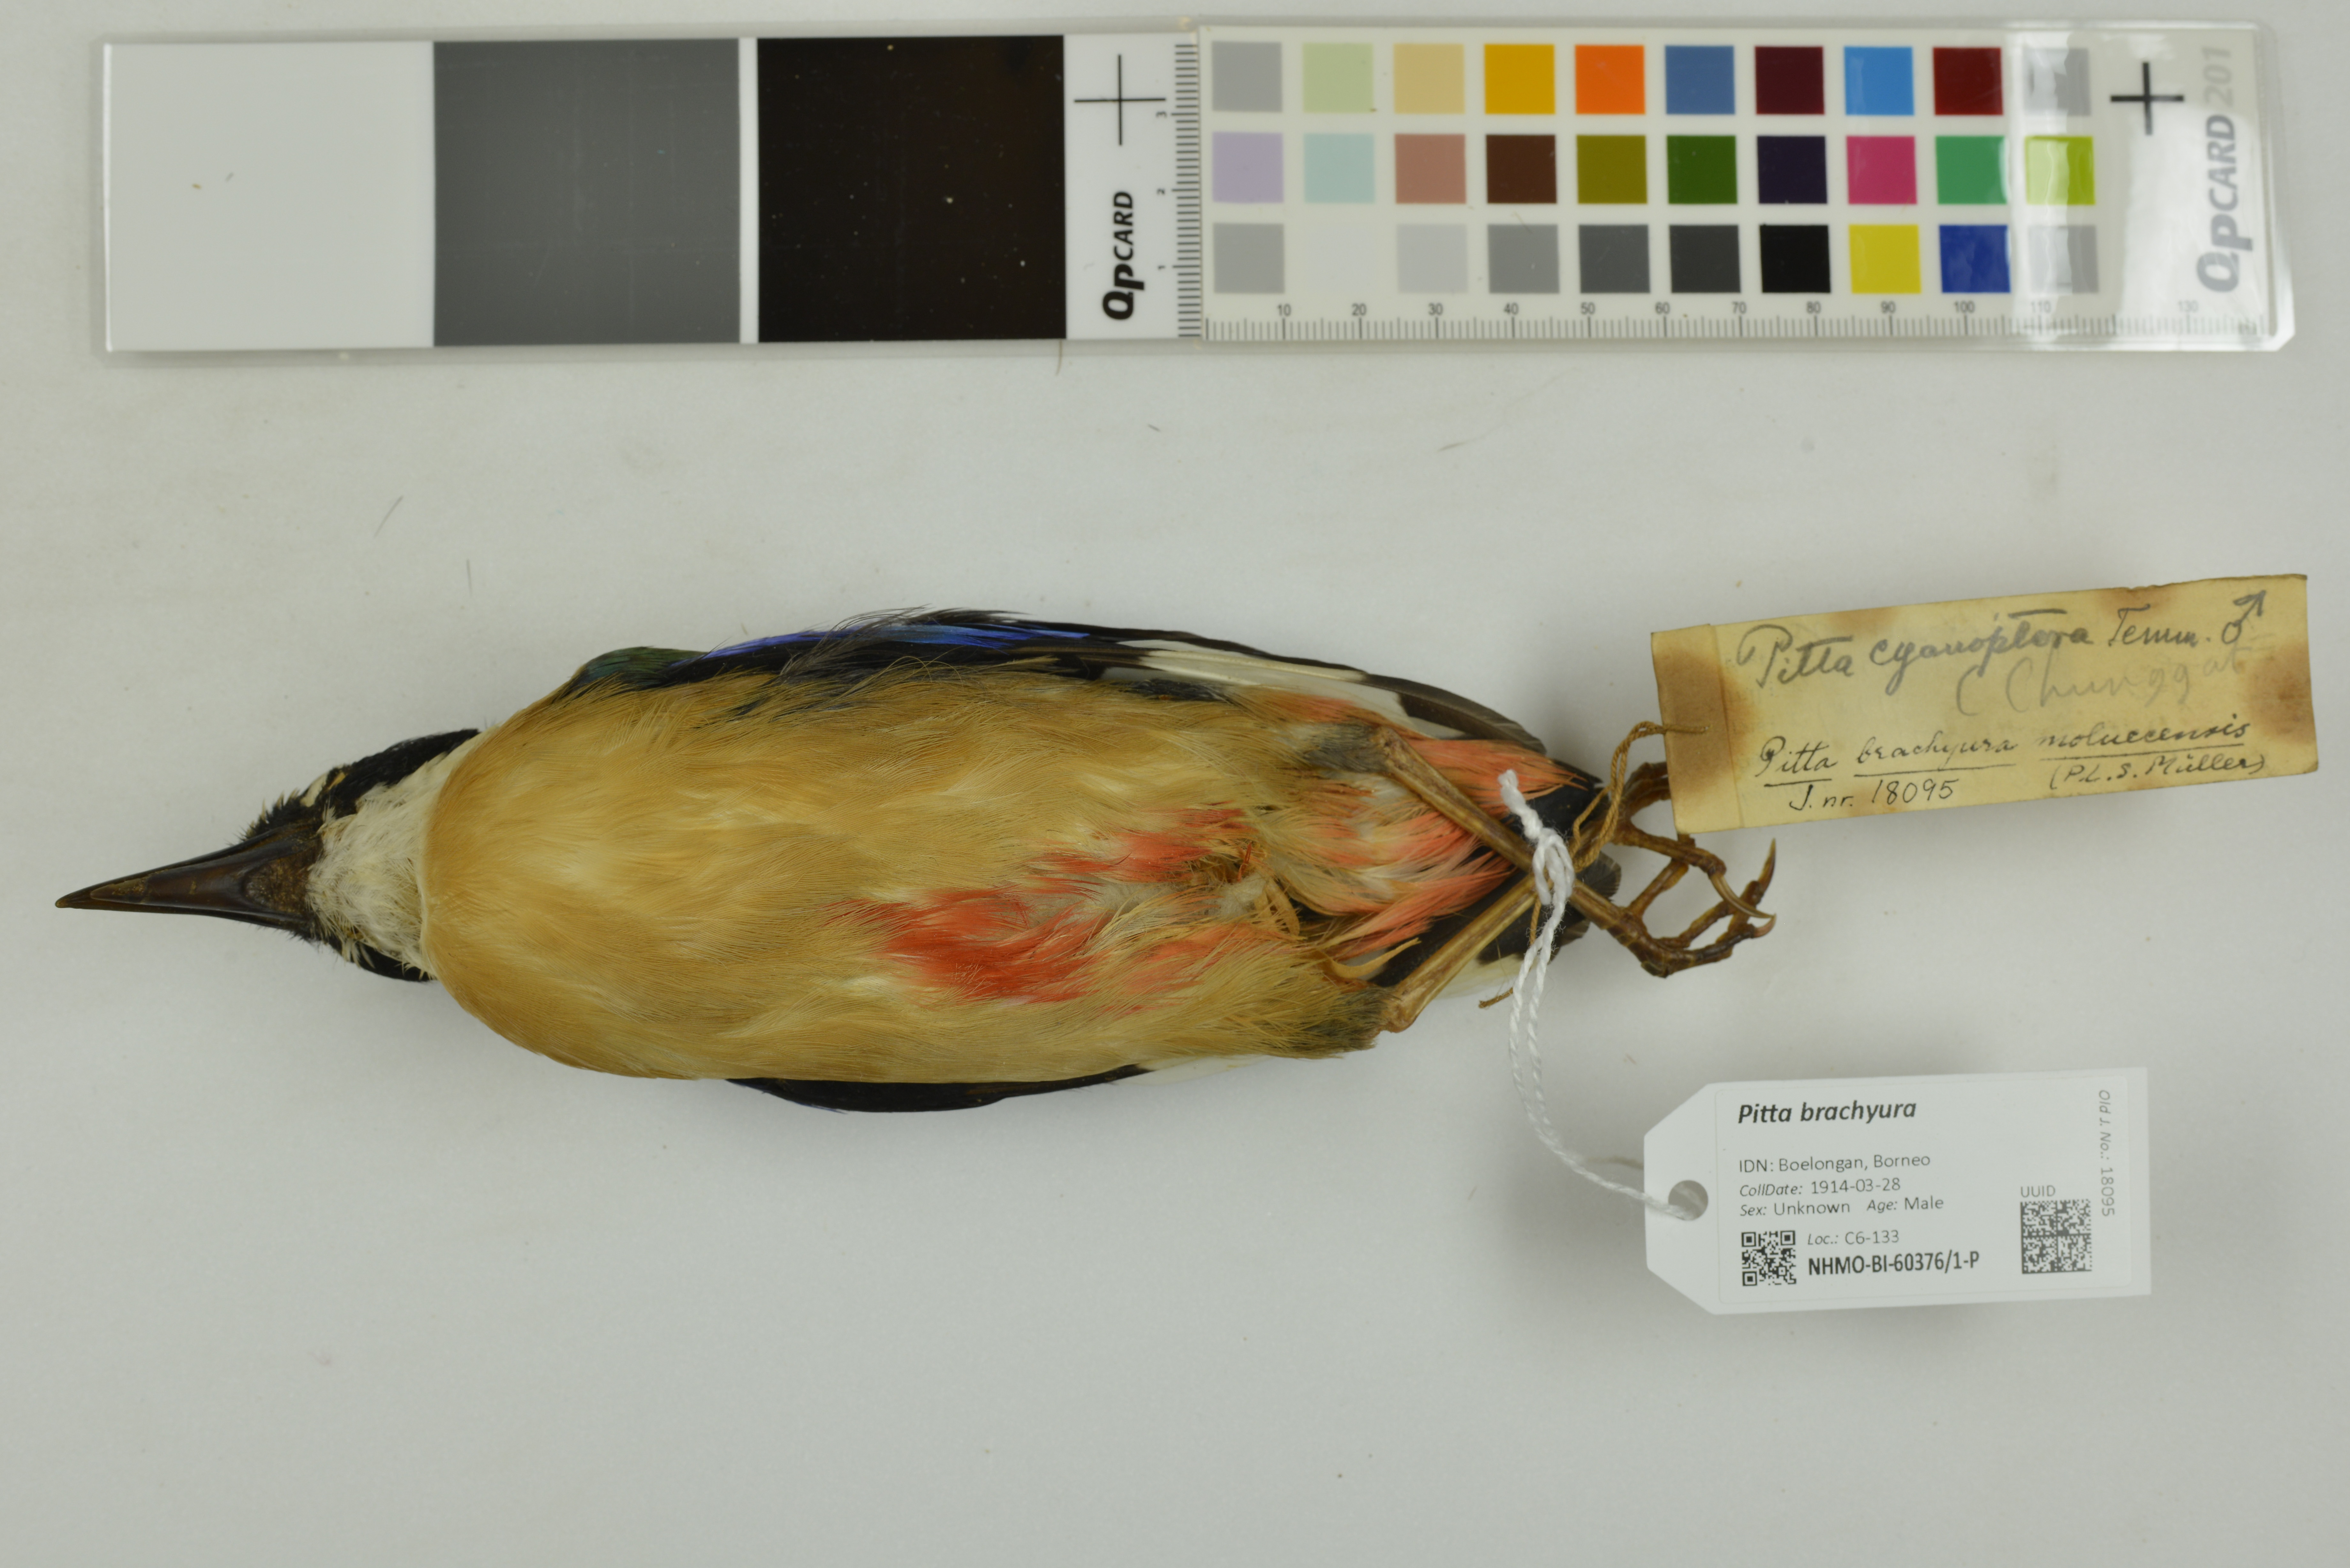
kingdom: Animalia
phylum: Chordata
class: Aves
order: Passeriformes
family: Pittidae
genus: Pitta
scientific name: Pitta brachyura
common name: Indian pitta
